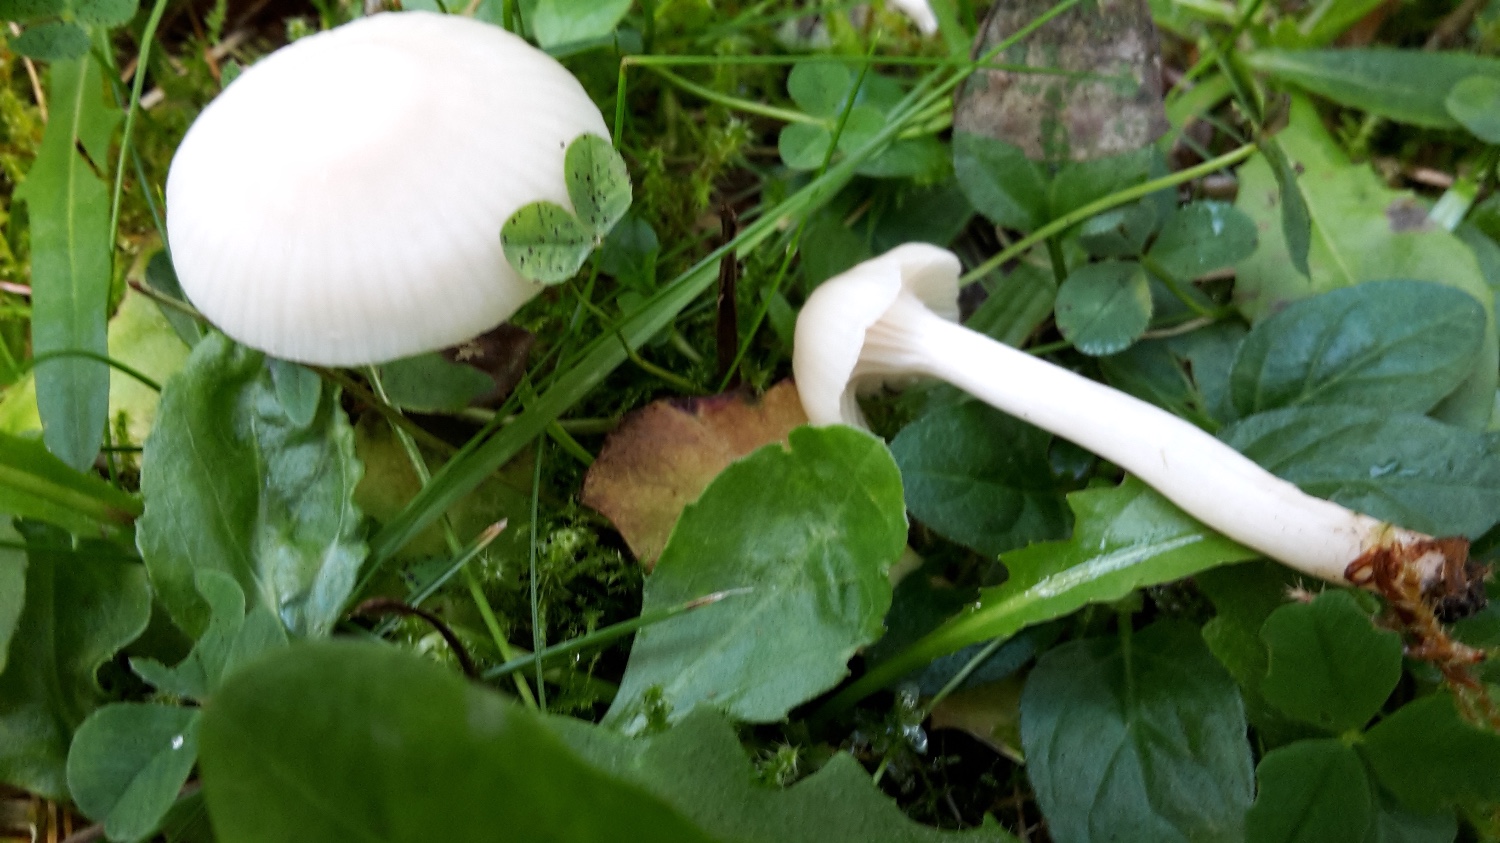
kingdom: Fungi
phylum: Basidiomycota
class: Agaricomycetes
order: Agaricales
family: Hygrophoraceae
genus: Cuphophyllus
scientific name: Cuphophyllus virgineus
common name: snehvid vokshat
